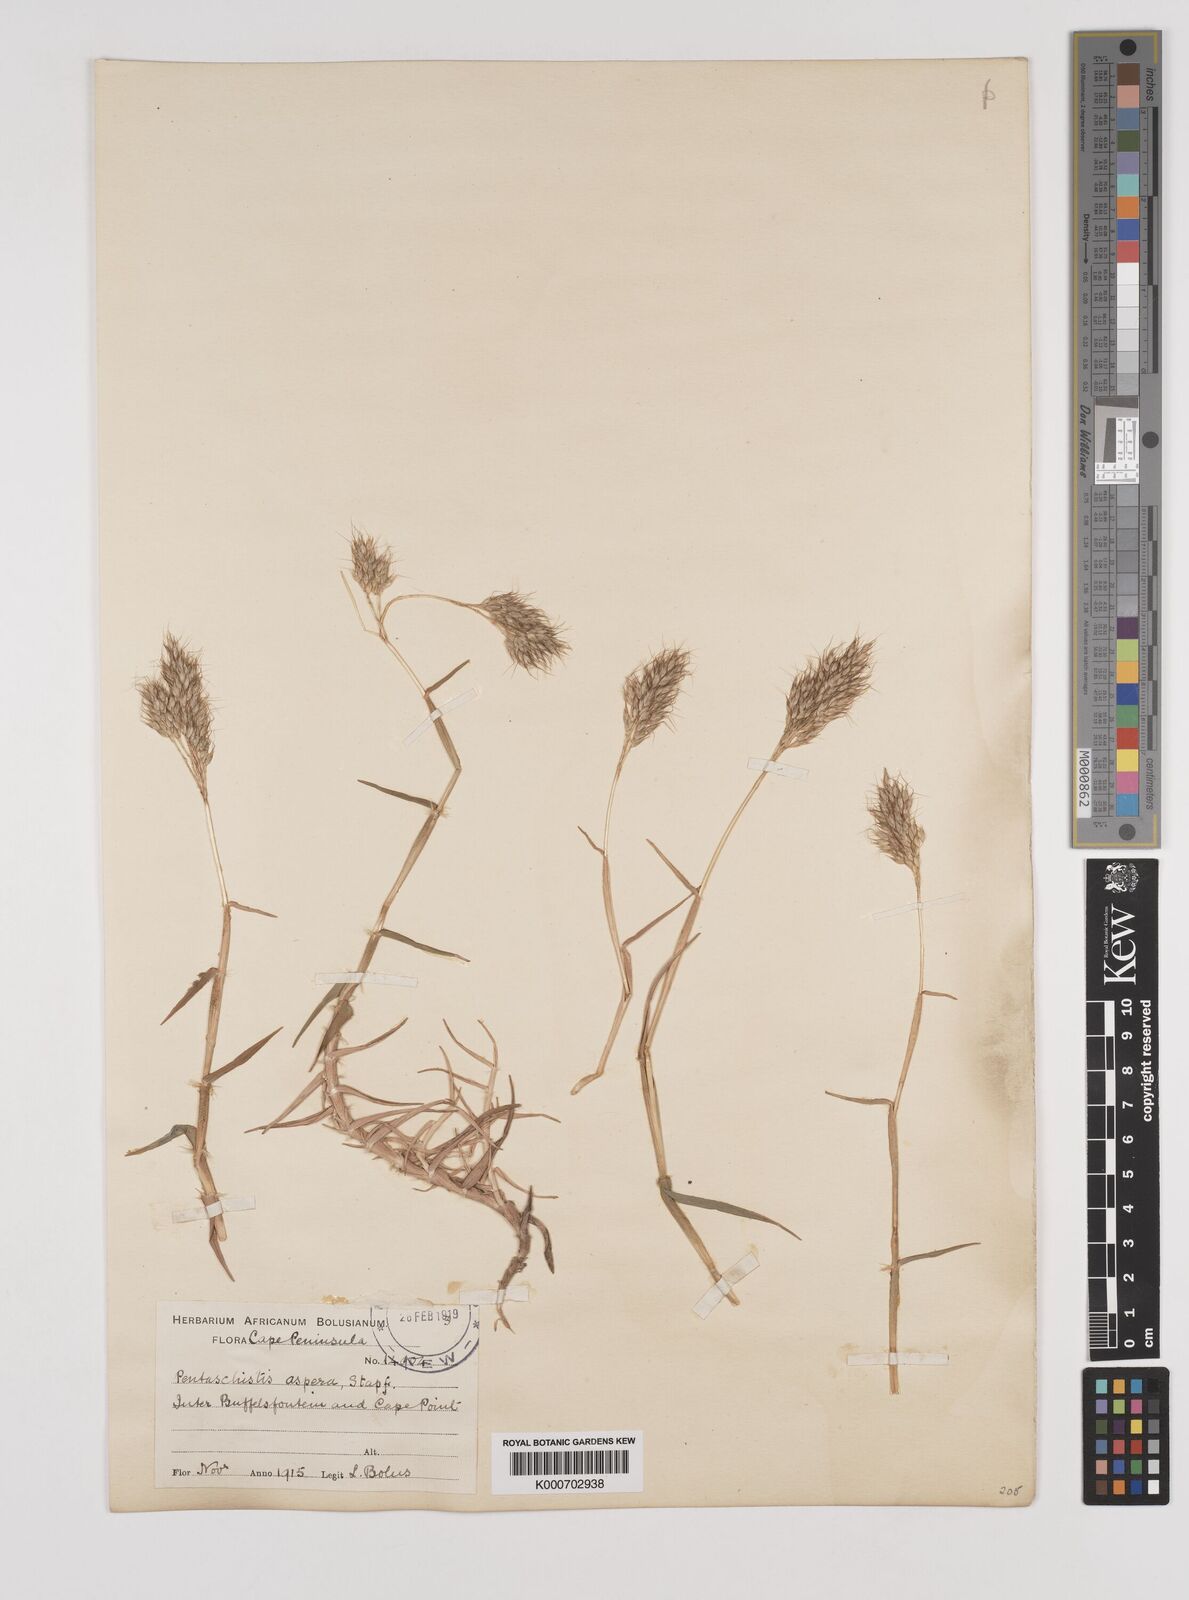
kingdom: Plantae
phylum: Tracheophyta
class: Liliopsida
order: Poales
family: Poaceae
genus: Pentameris
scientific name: Pentameris scabra
